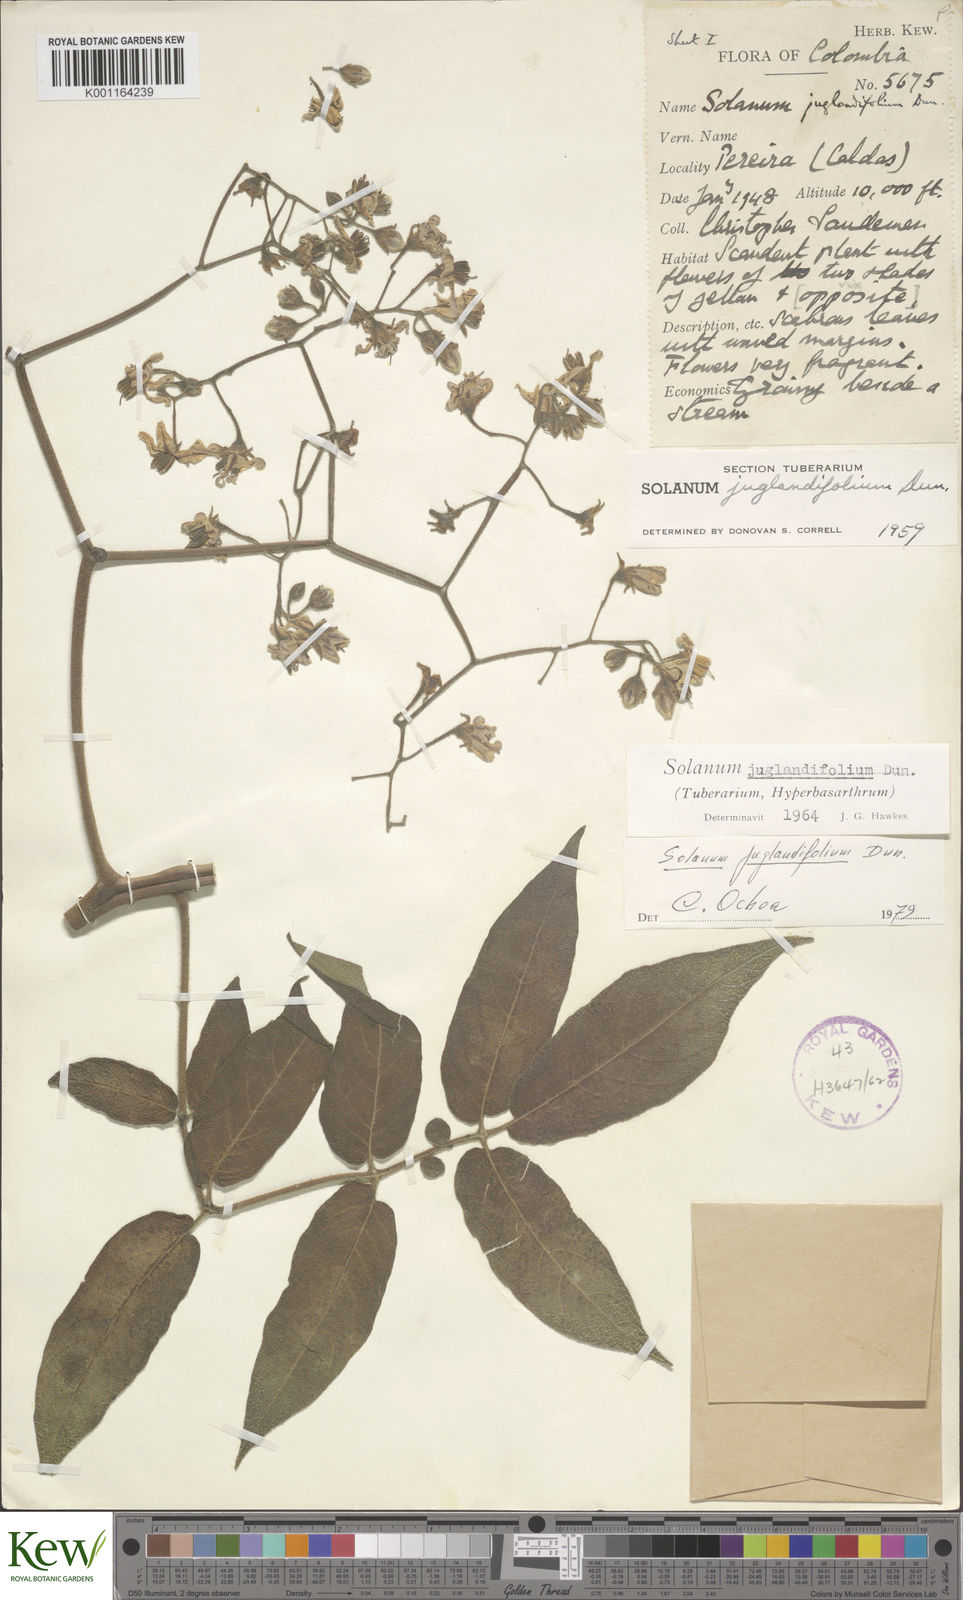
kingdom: Plantae
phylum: Tracheophyta
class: Magnoliopsida
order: Solanales
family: Solanaceae
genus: Solanum
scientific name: Solanum juglandifolium
